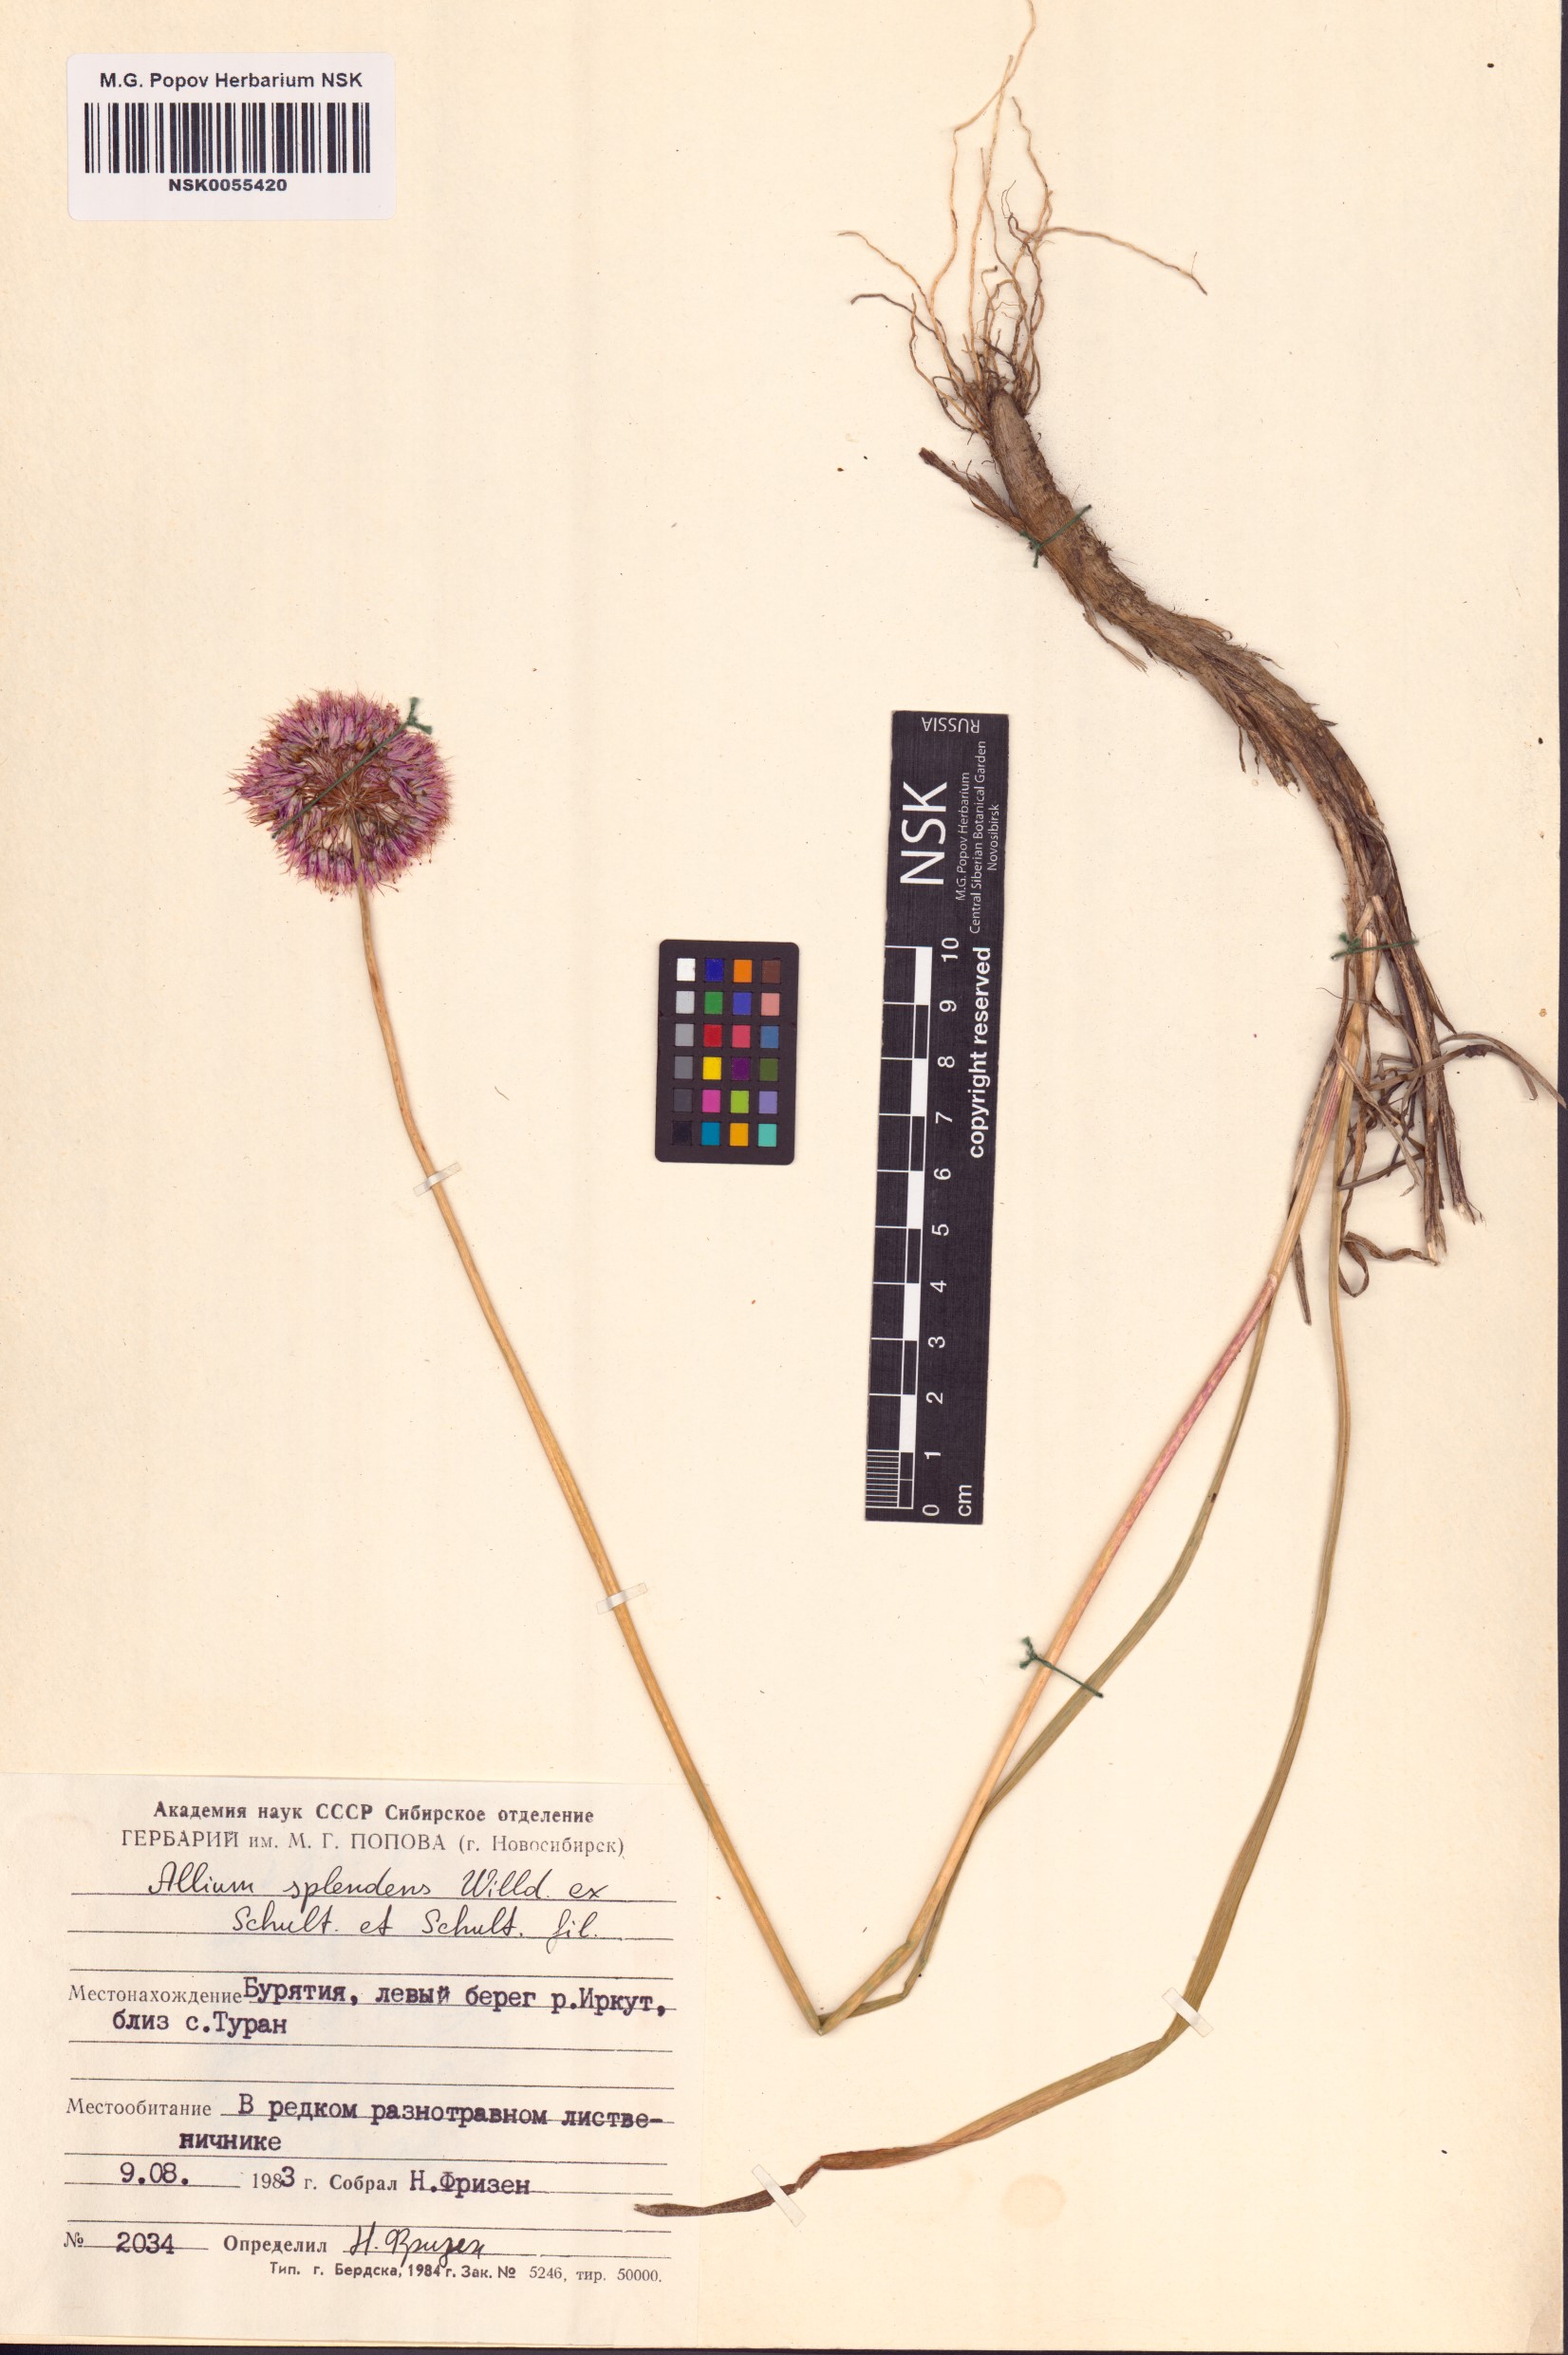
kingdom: Plantae
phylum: Tracheophyta
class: Liliopsida
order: Asparagales
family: Amaryllidaceae
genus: Allium
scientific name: Allium splendens
